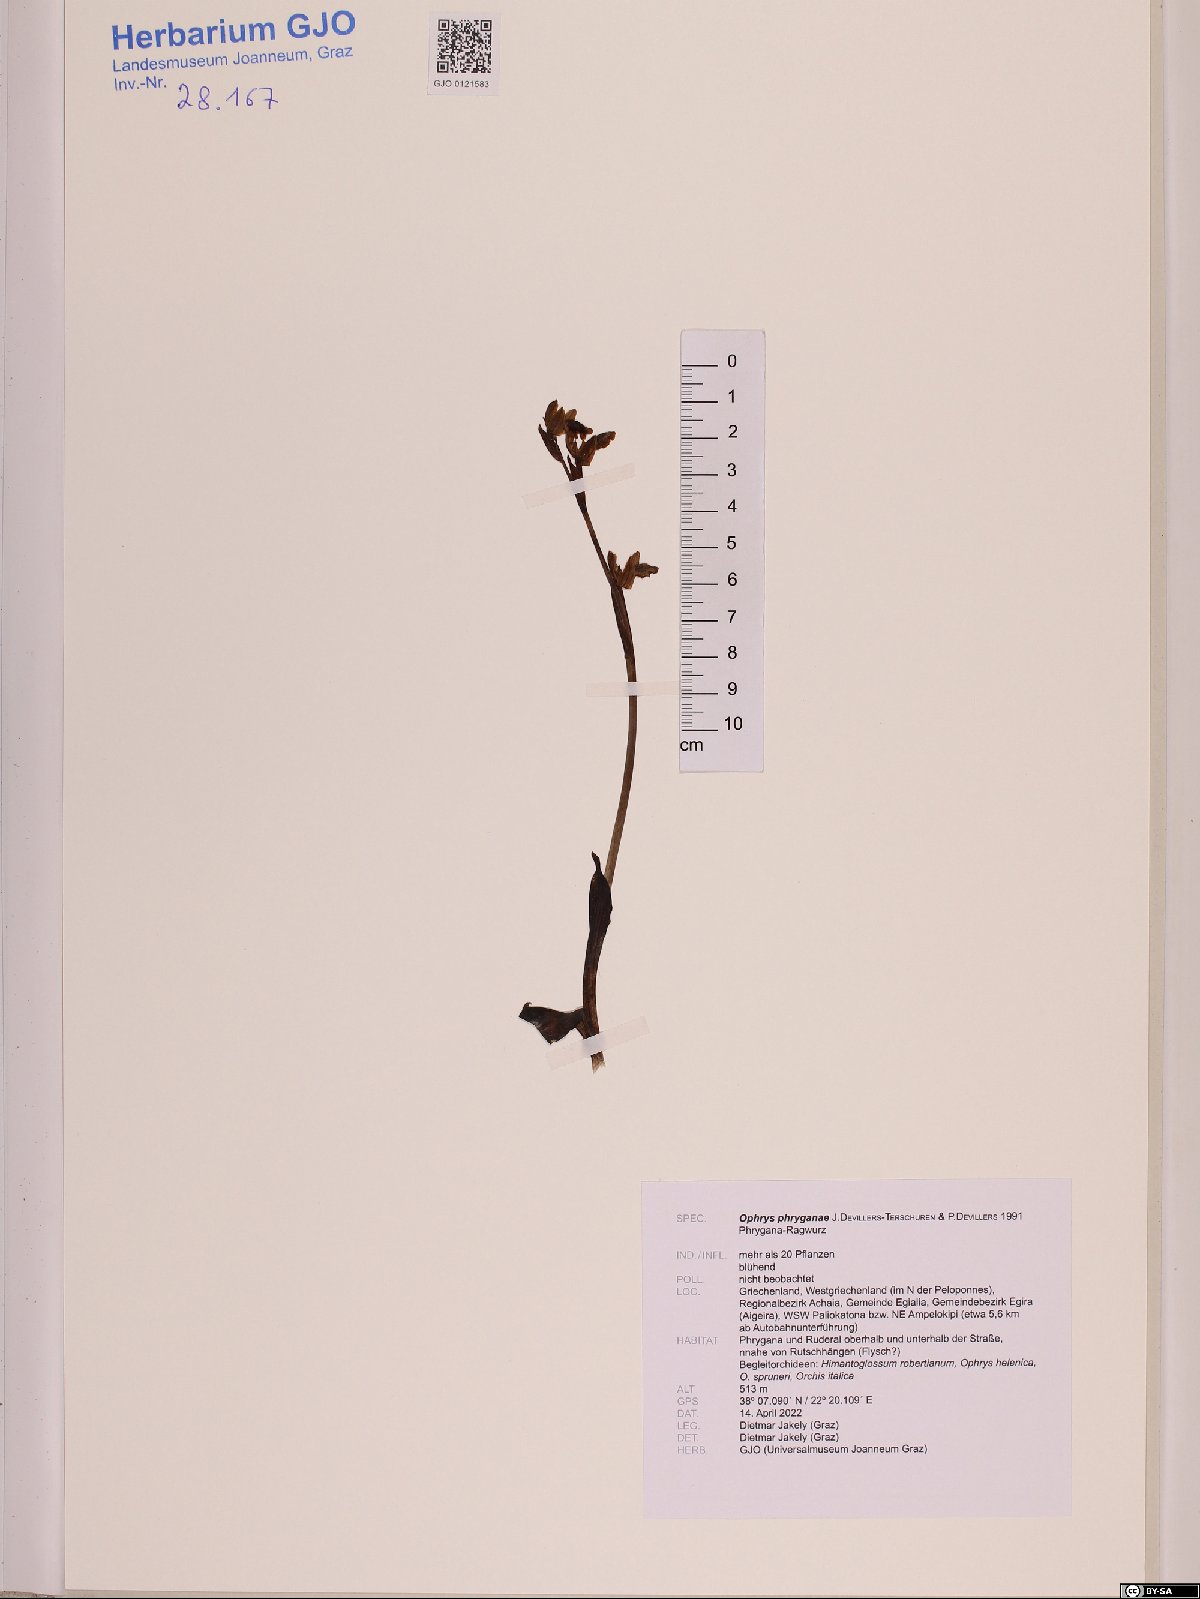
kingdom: Plantae
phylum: Tracheophyta
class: Liliopsida
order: Asparagales
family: Orchidaceae
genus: Ophrys
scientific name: Ophrys lutea
